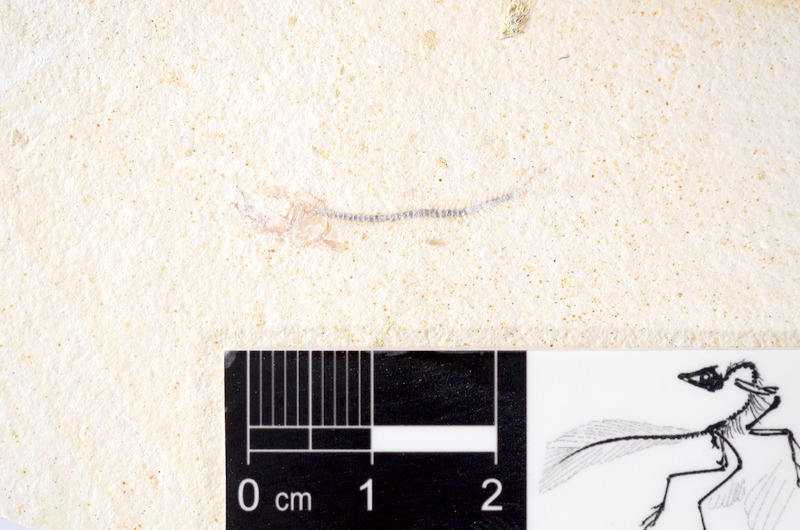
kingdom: Animalia
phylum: Chordata
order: Salmoniformes
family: Orthogonikleithridae
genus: Orthogonikleithrus
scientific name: Orthogonikleithrus hoelli
